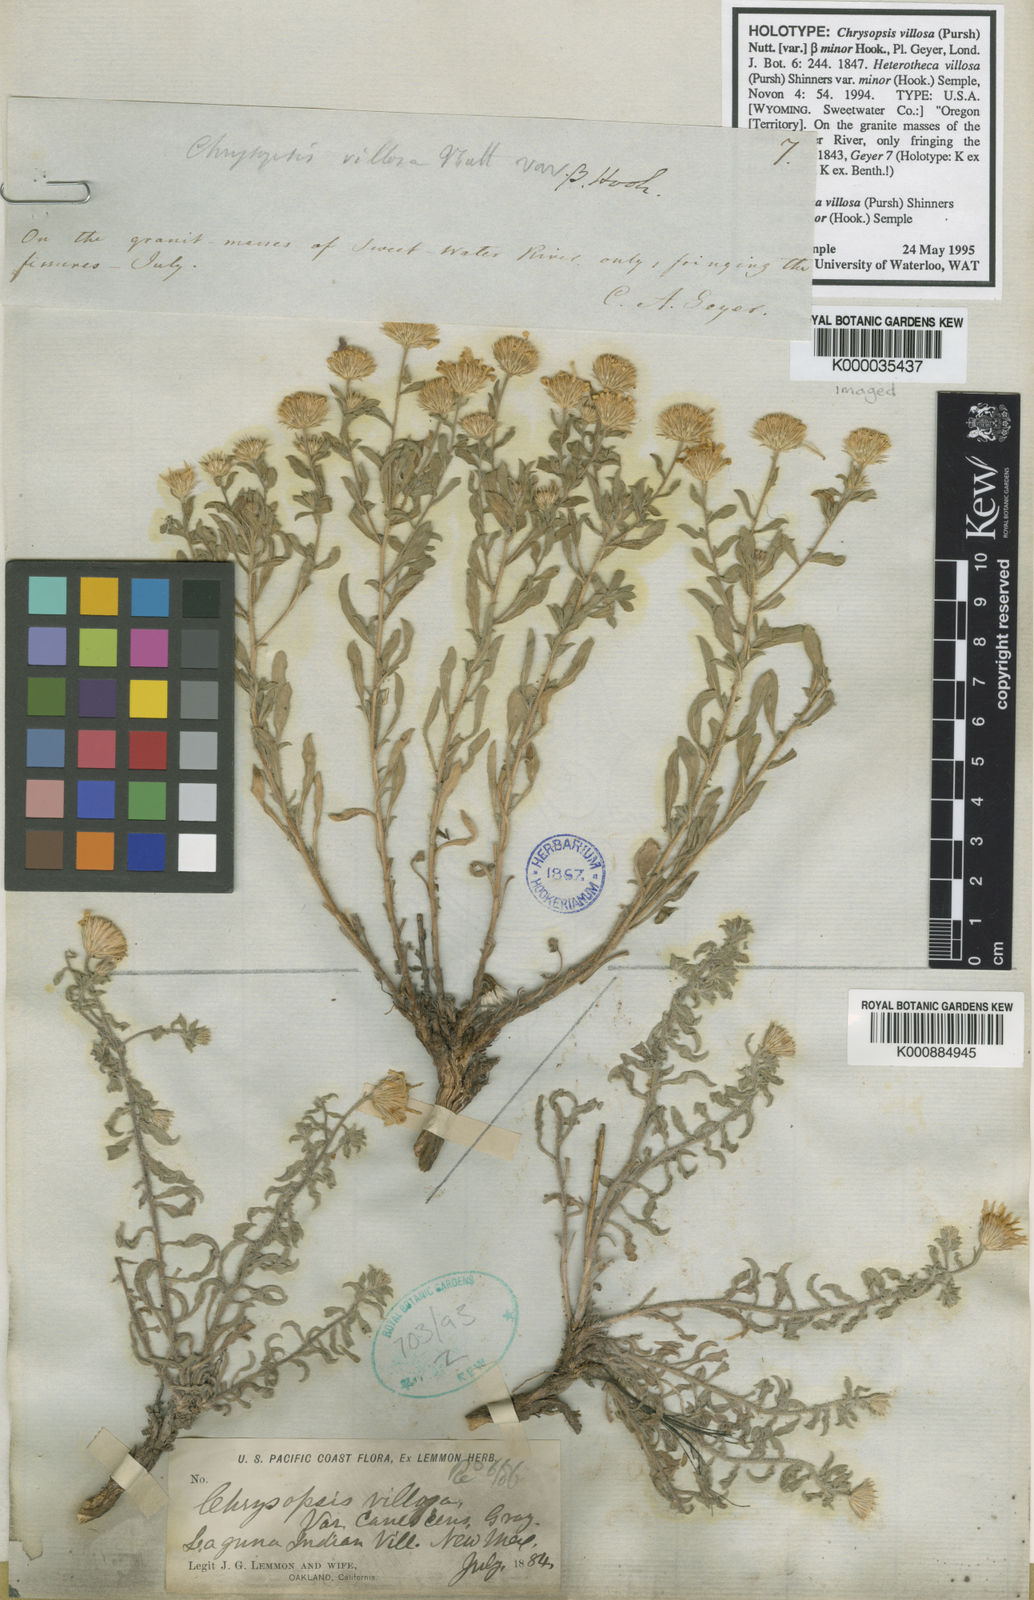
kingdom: Plantae
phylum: Tracheophyta
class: Magnoliopsida
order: Asterales
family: Asteraceae
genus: Heterotheca
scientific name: Heterotheca villosa
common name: Hairy false goldenaster
